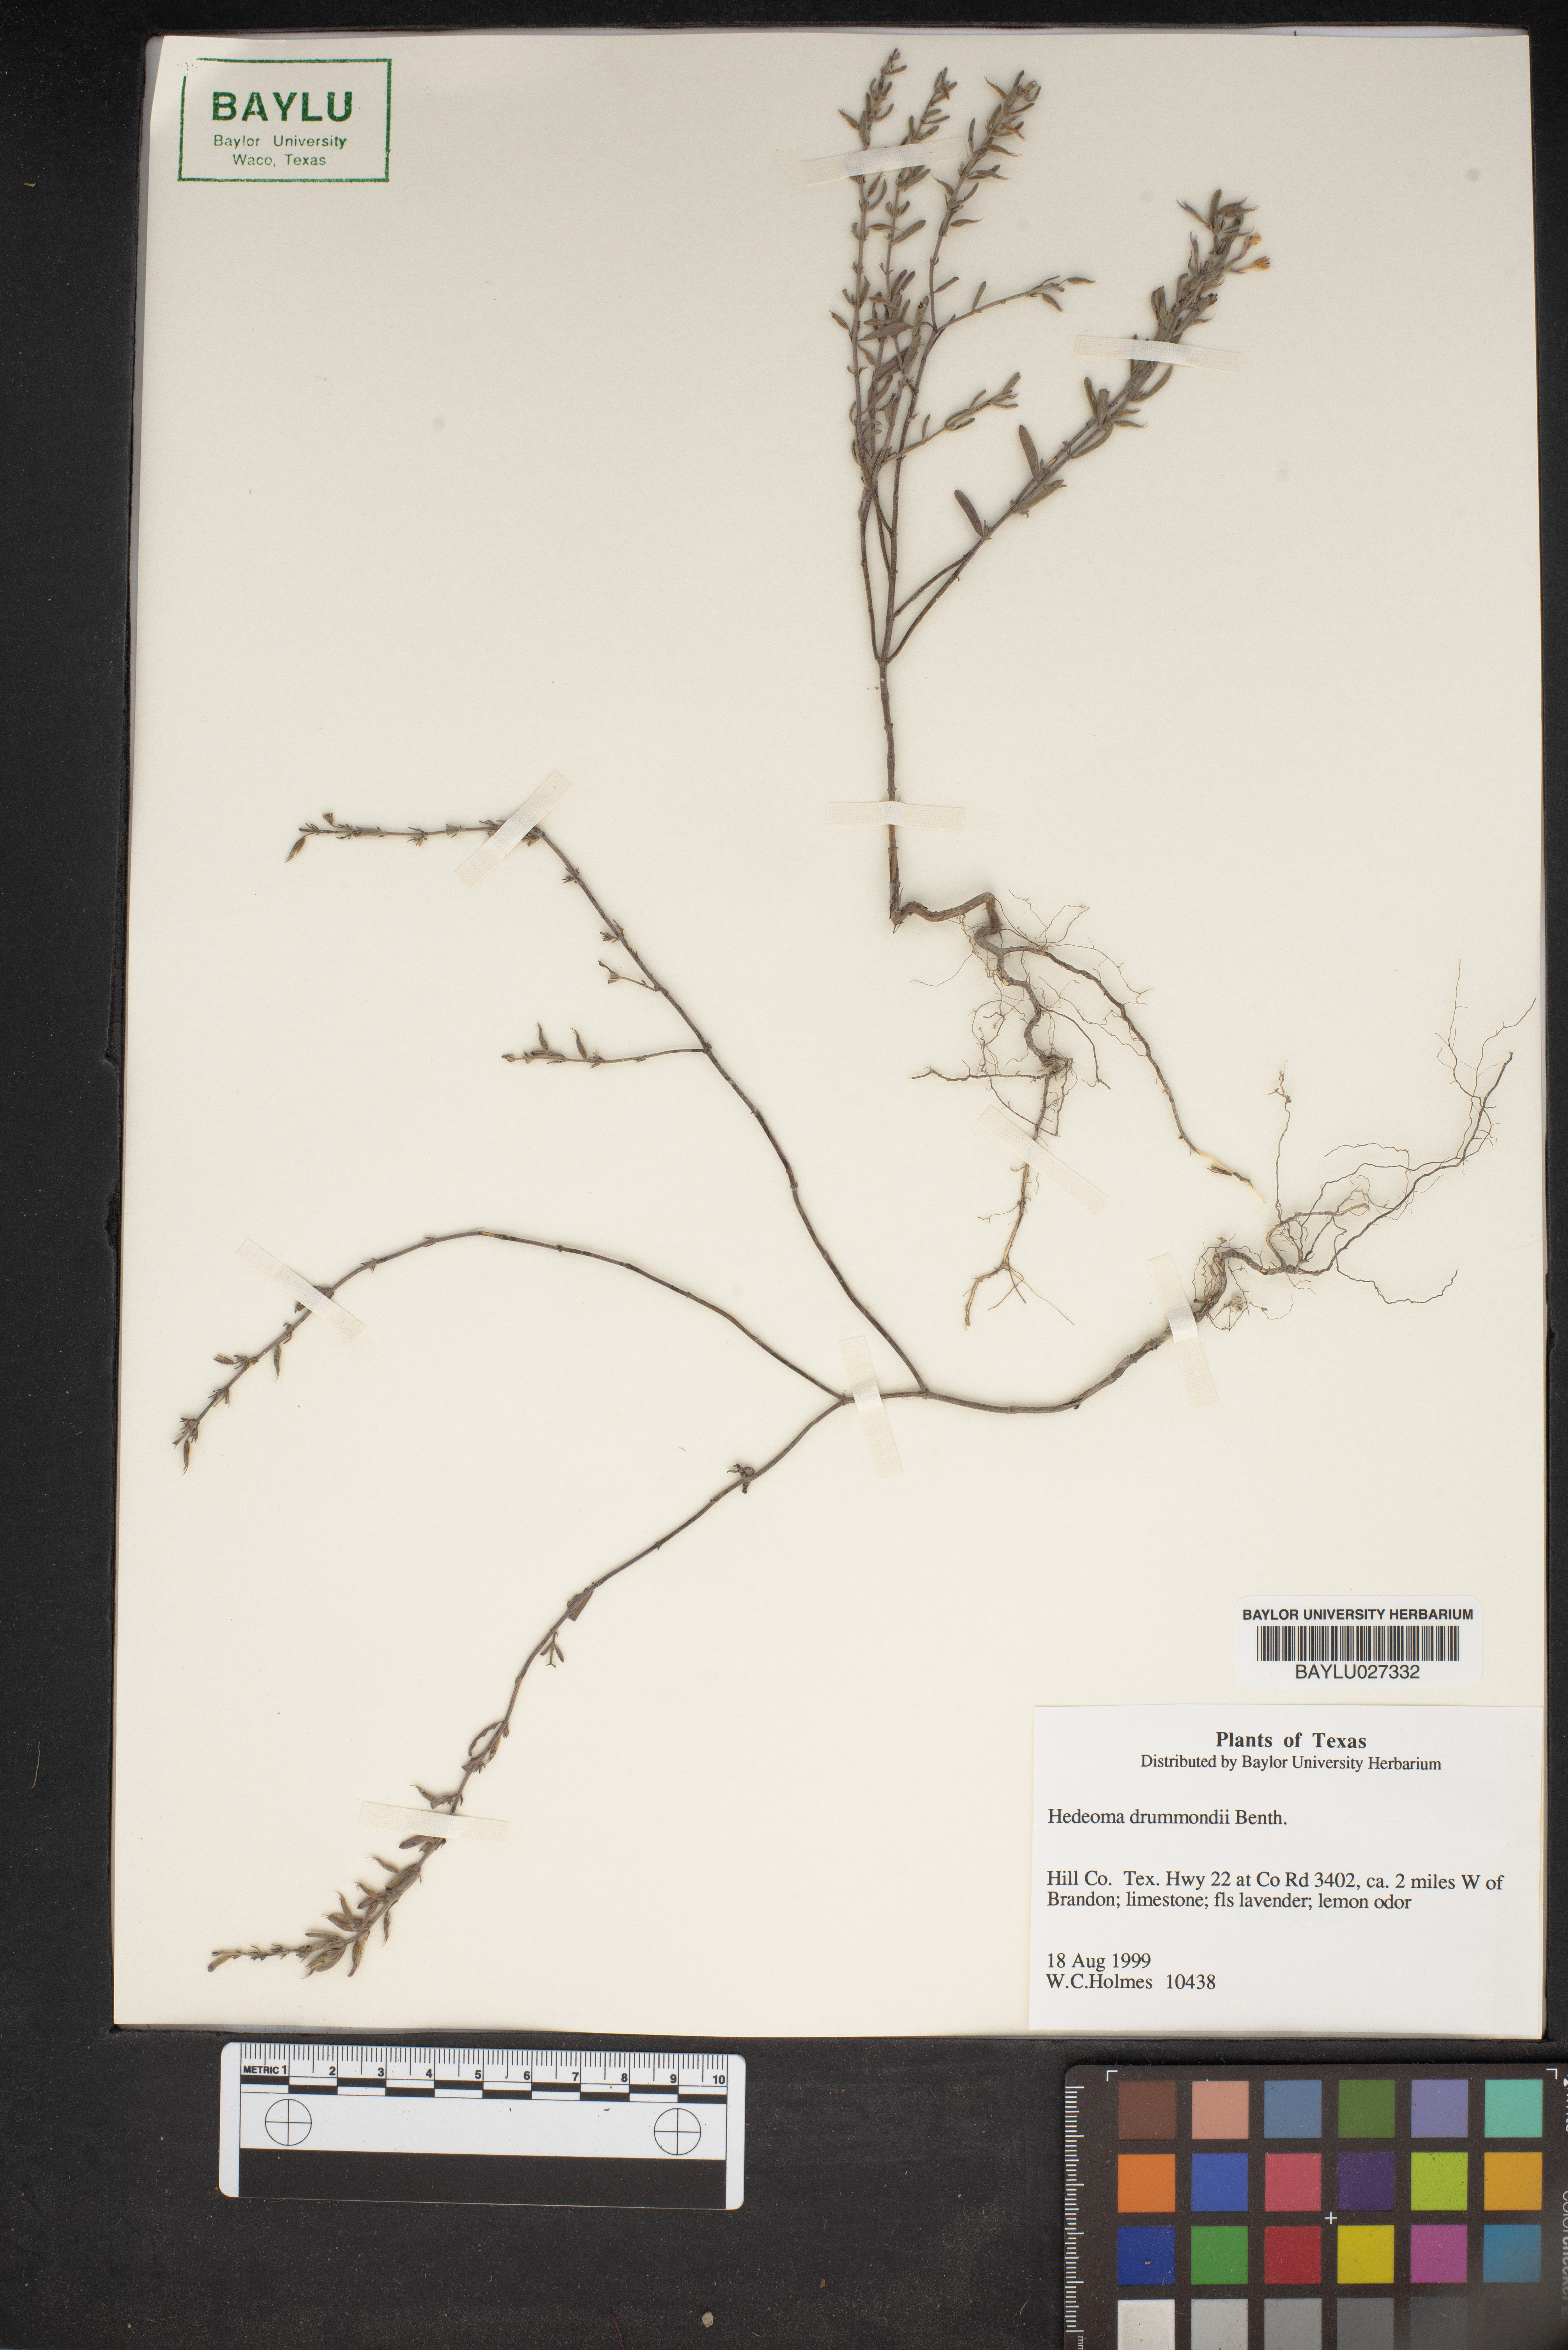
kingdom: Plantae
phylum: Tracheophyta
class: Magnoliopsida
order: Lamiales
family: Lamiaceae
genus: Hedeoma
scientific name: Hedeoma drummondii
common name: New mexico pennyroyal
